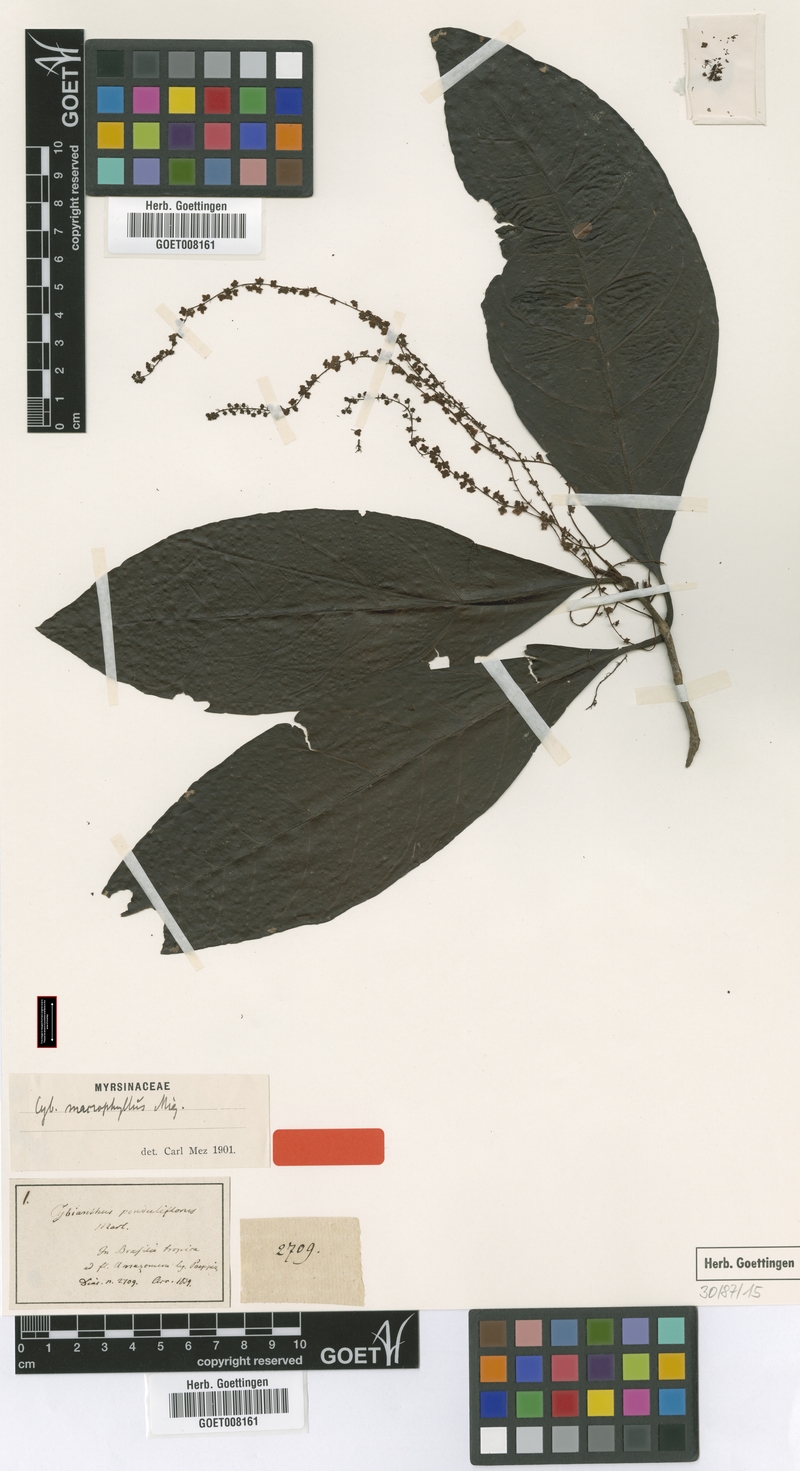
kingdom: Plantae
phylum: Tracheophyta
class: Magnoliopsida
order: Ericales
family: Primulaceae
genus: Cybianthus
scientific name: Cybianthus penduliflorus
